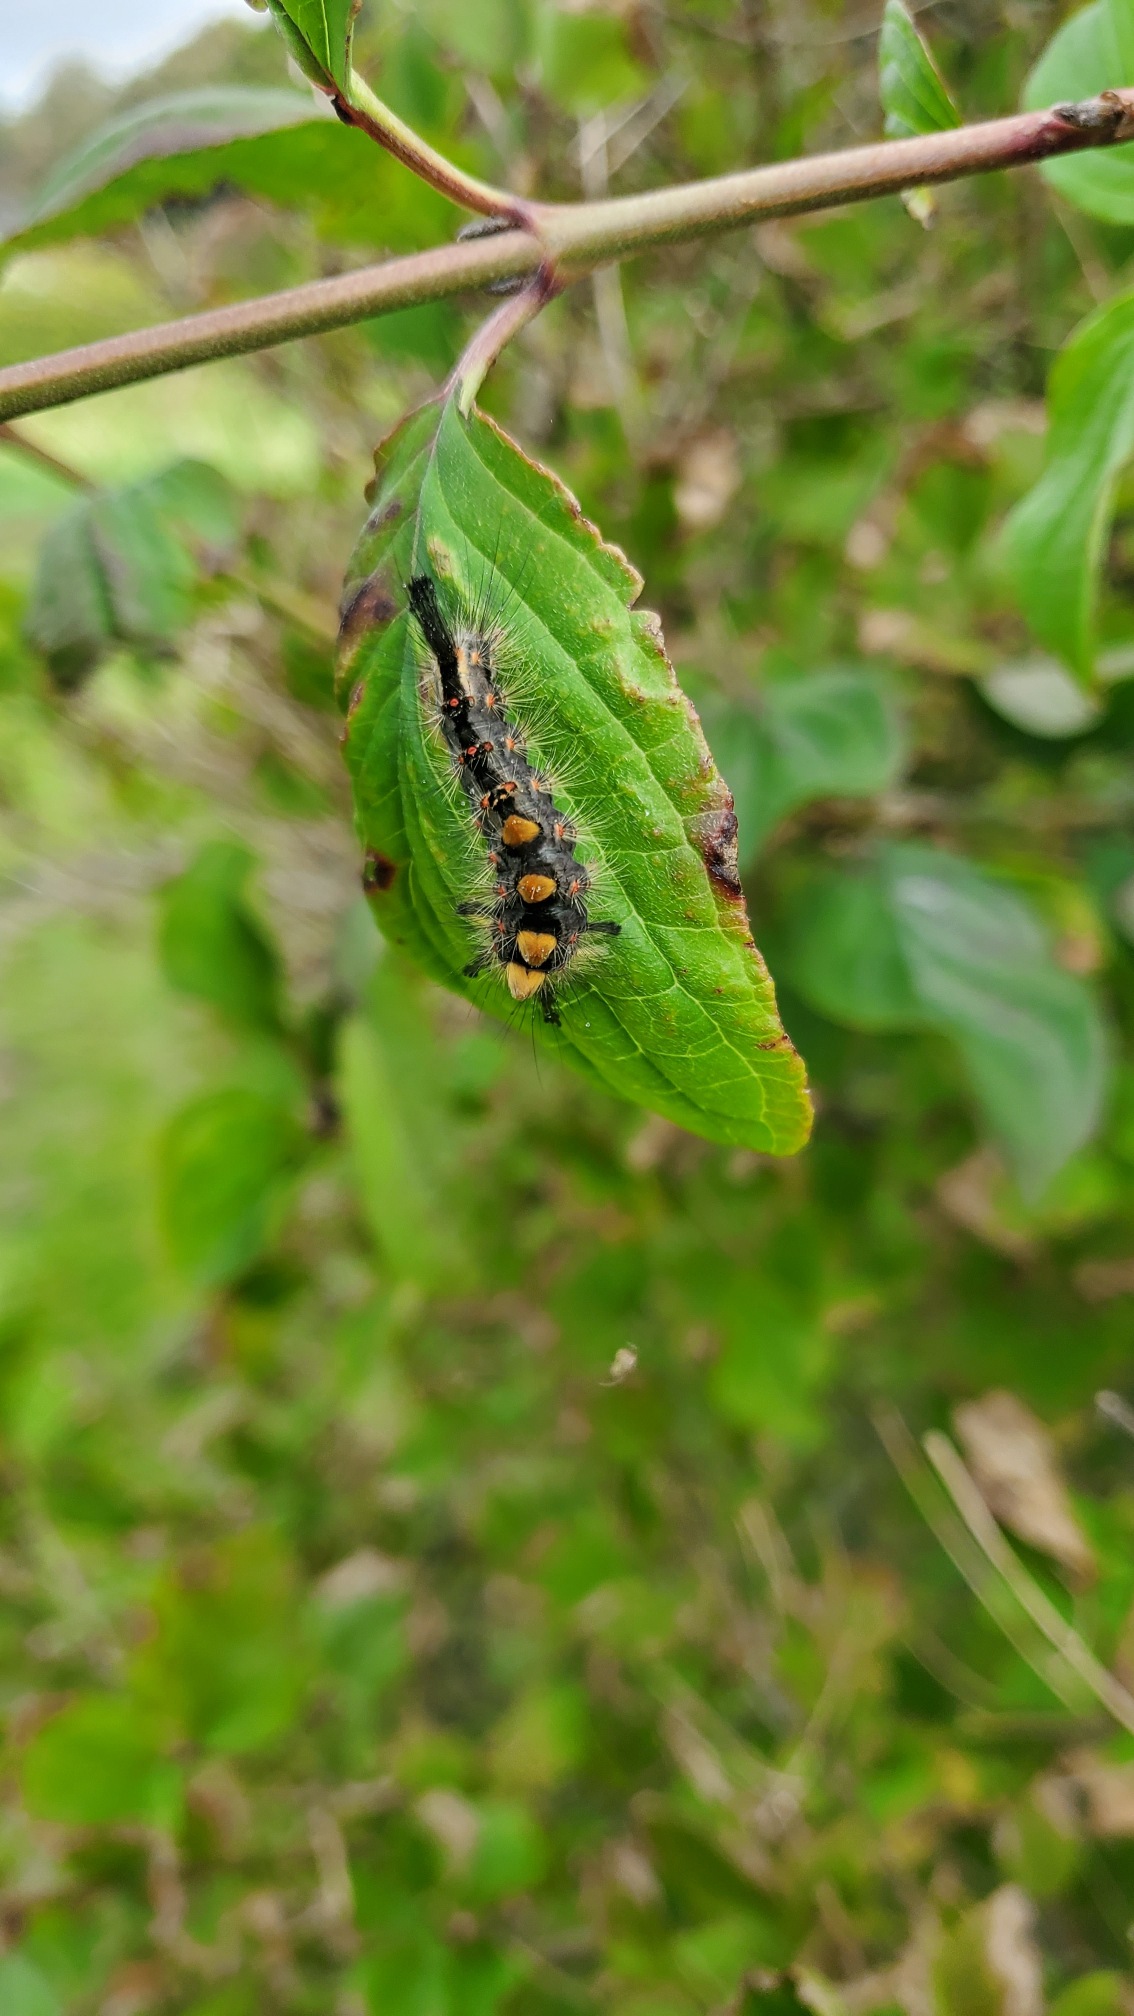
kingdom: Animalia
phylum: Arthropoda
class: Insecta
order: Lepidoptera
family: Erebidae
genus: Orgyia
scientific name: Orgyia antiqua
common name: Lille penselspinder
